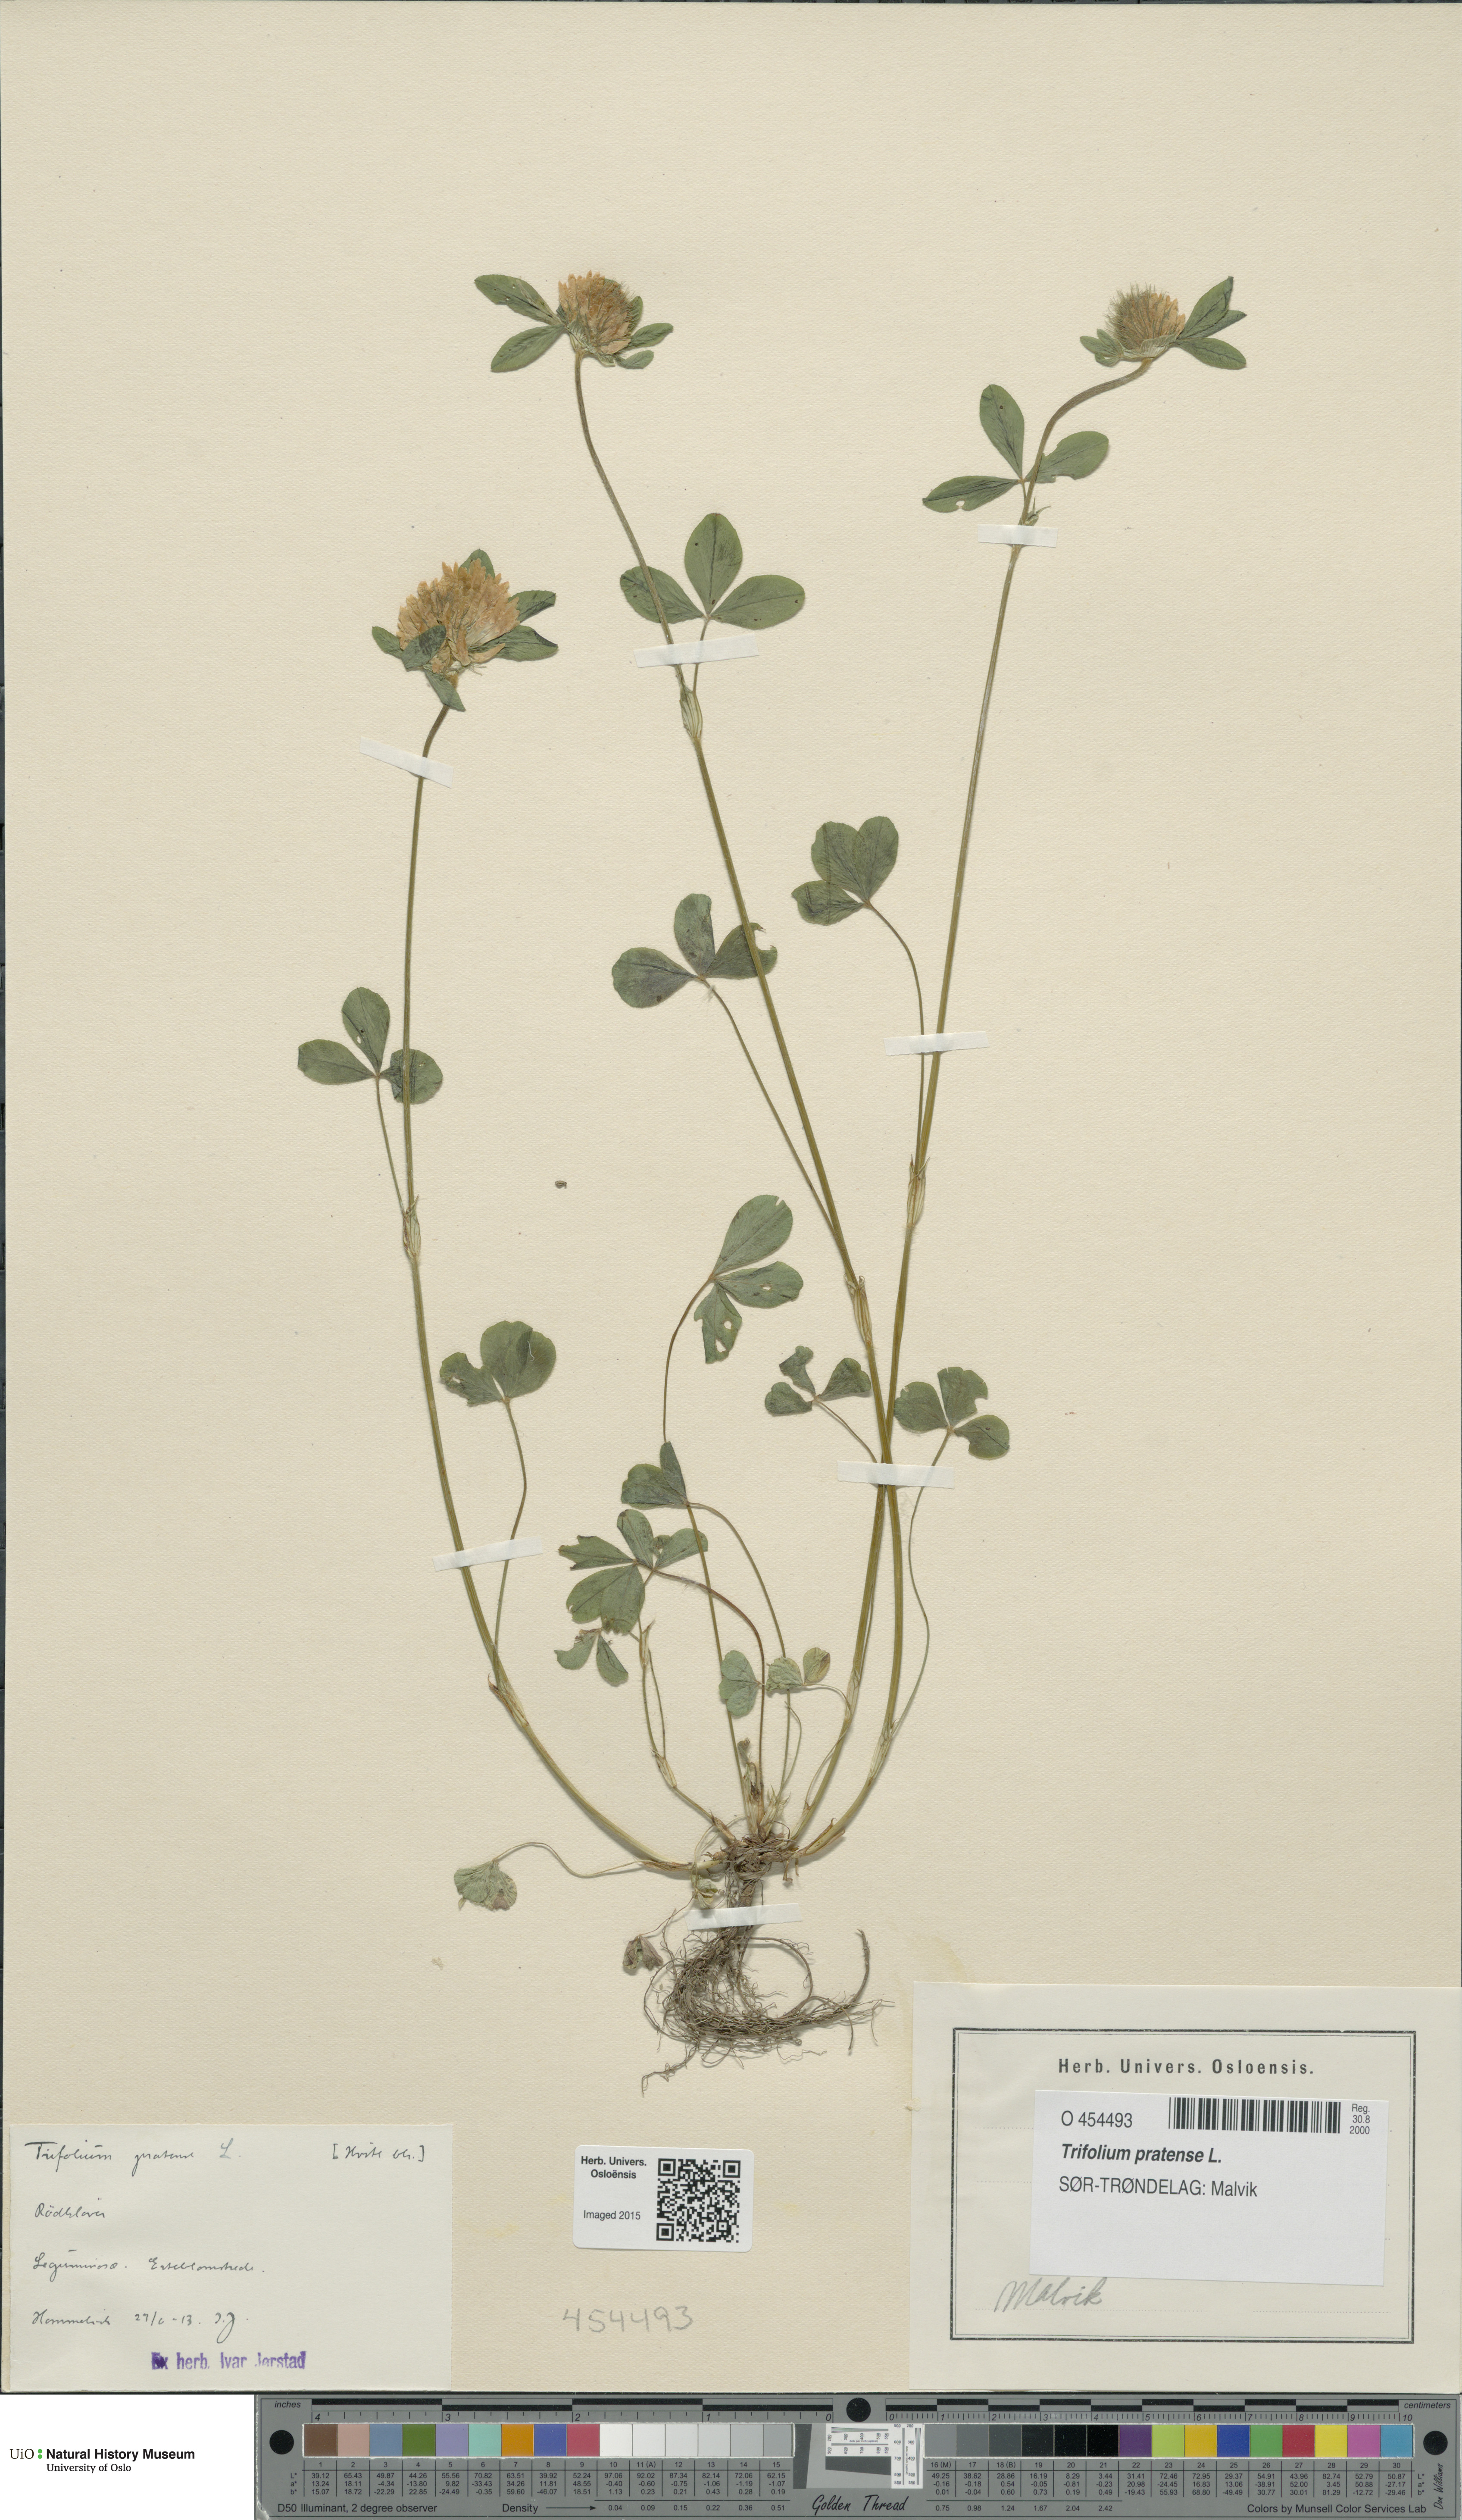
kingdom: Plantae
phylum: Tracheophyta
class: Magnoliopsida
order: Fabales
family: Fabaceae
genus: Trifolium
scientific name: Trifolium pratense
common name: Red clover
